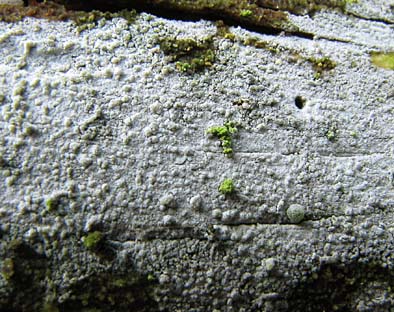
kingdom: Fungi
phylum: Basidiomycota
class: Agaricomycetes
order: Hymenochaetales
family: Hymenochaetaceae
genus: Tubulicrinis
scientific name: Tubulicrinis medius
